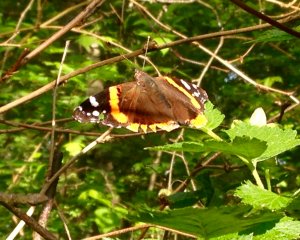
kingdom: Animalia
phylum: Arthropoda
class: Insecta
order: Lepidoptera
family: Nymphalidae
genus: Vanessa
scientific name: Vanessa atalanta
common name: Red Admiral
